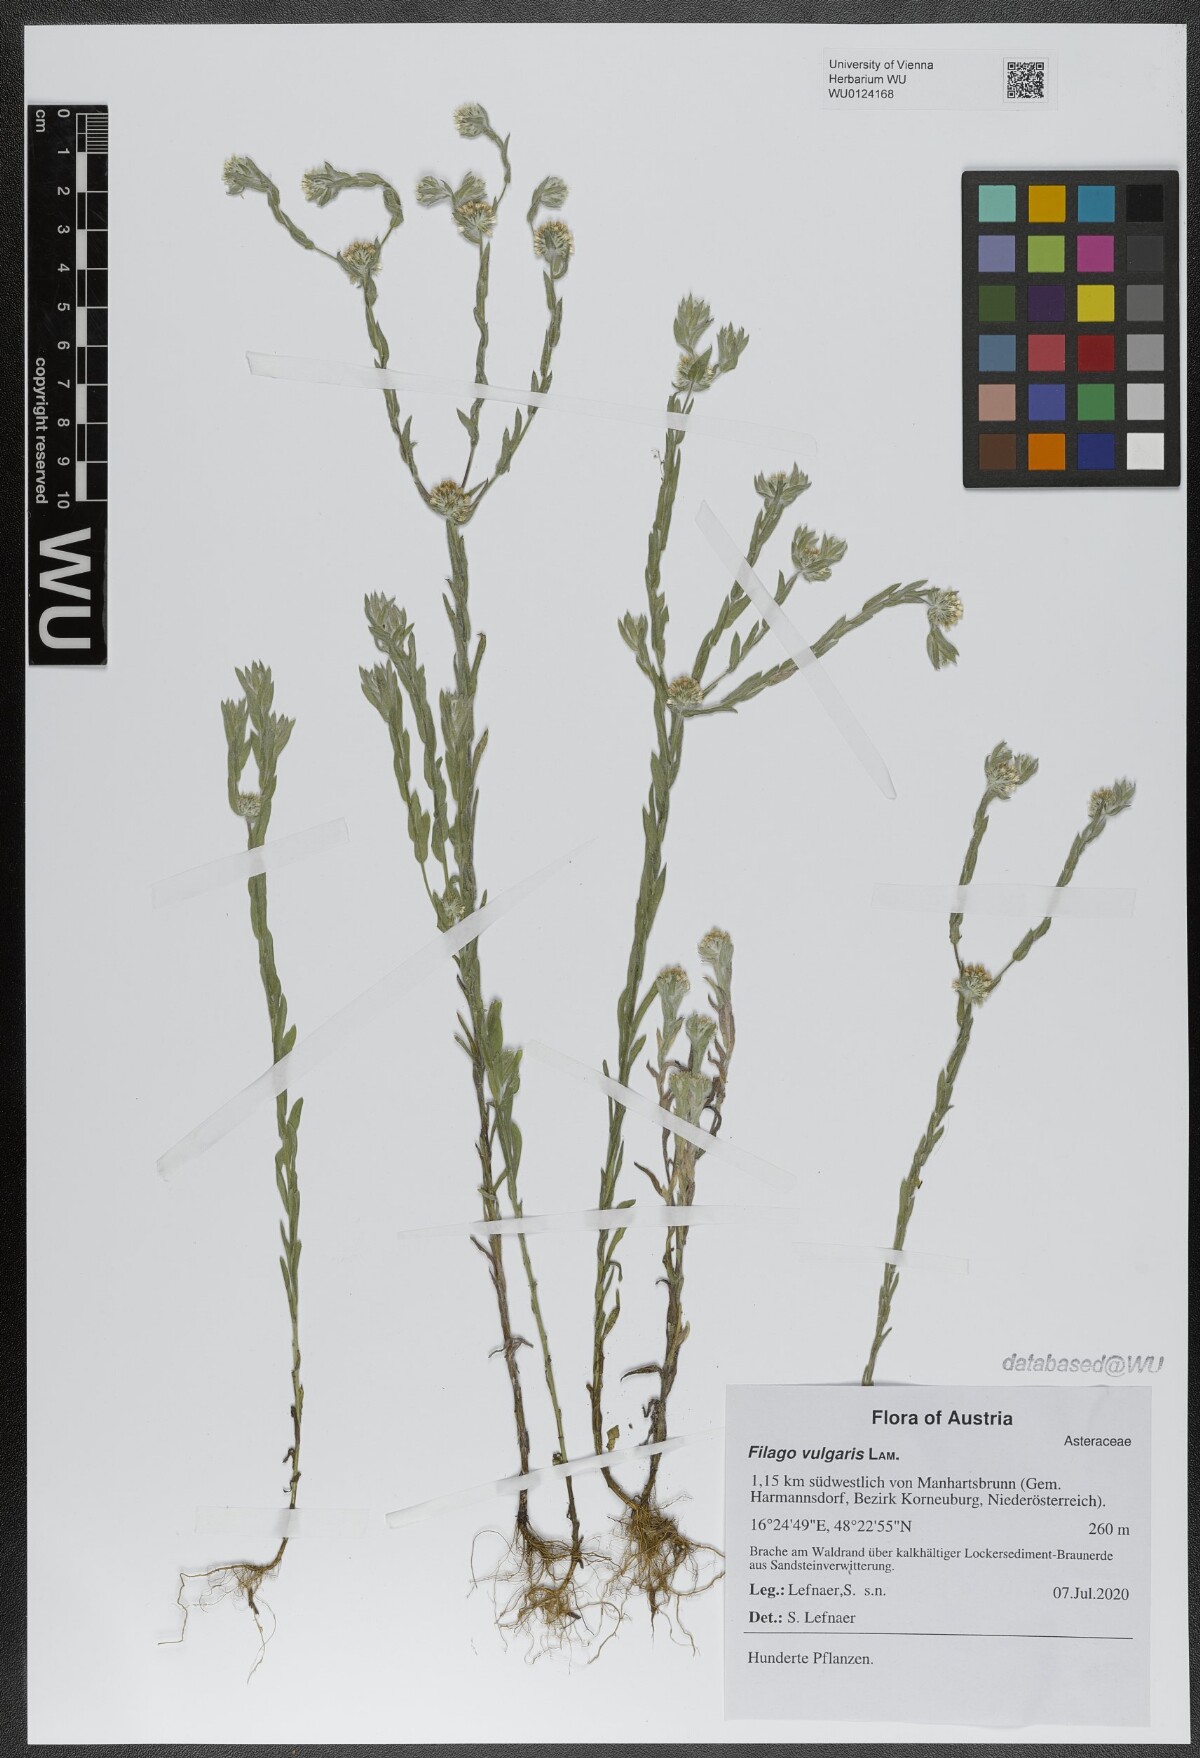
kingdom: Plantae
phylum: Tracheophyta
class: Magnoliopsida
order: Asterales
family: Asteraceae
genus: Filago
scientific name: Filago germanica
